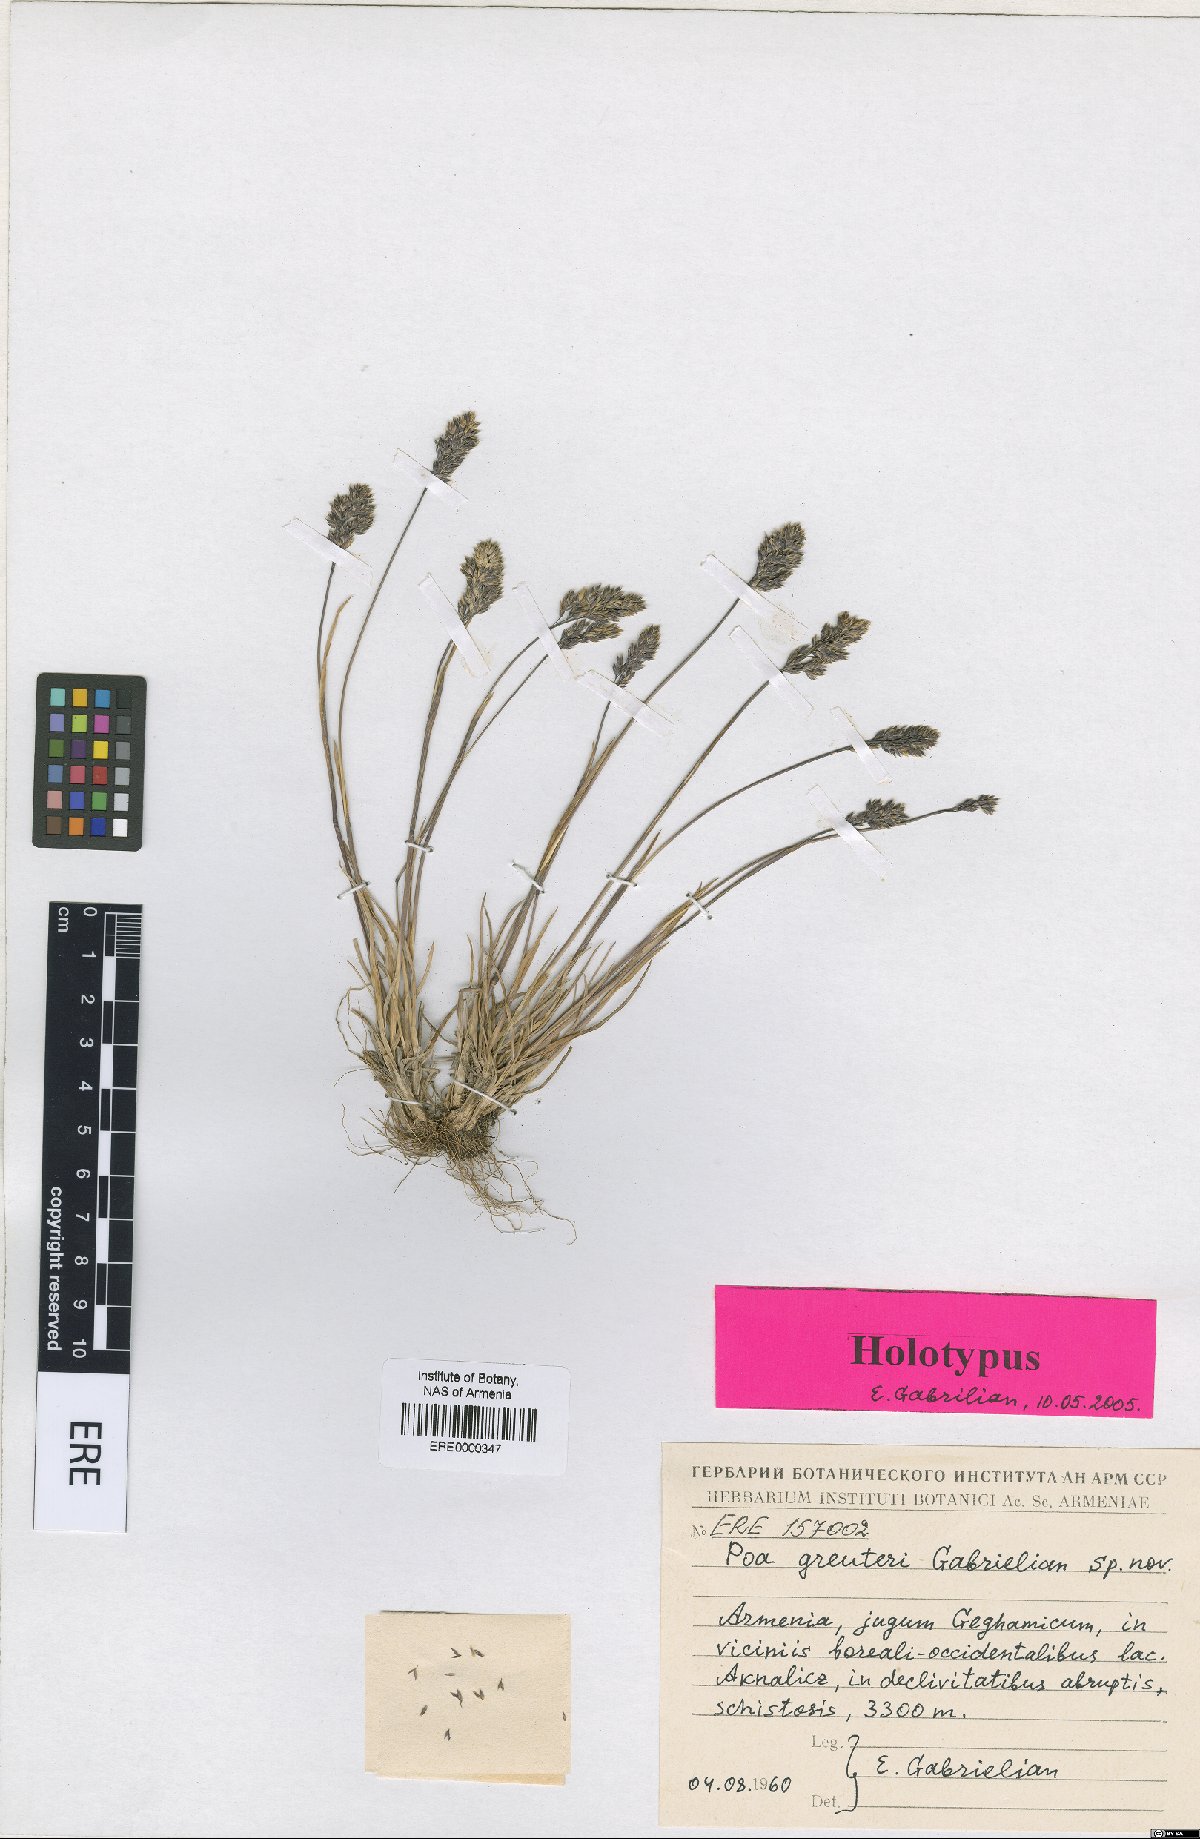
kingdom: Plantae
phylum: Tracheophyta
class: Liliopsida
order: Poales
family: Poaceae
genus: Poa
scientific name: Poa greuteri
